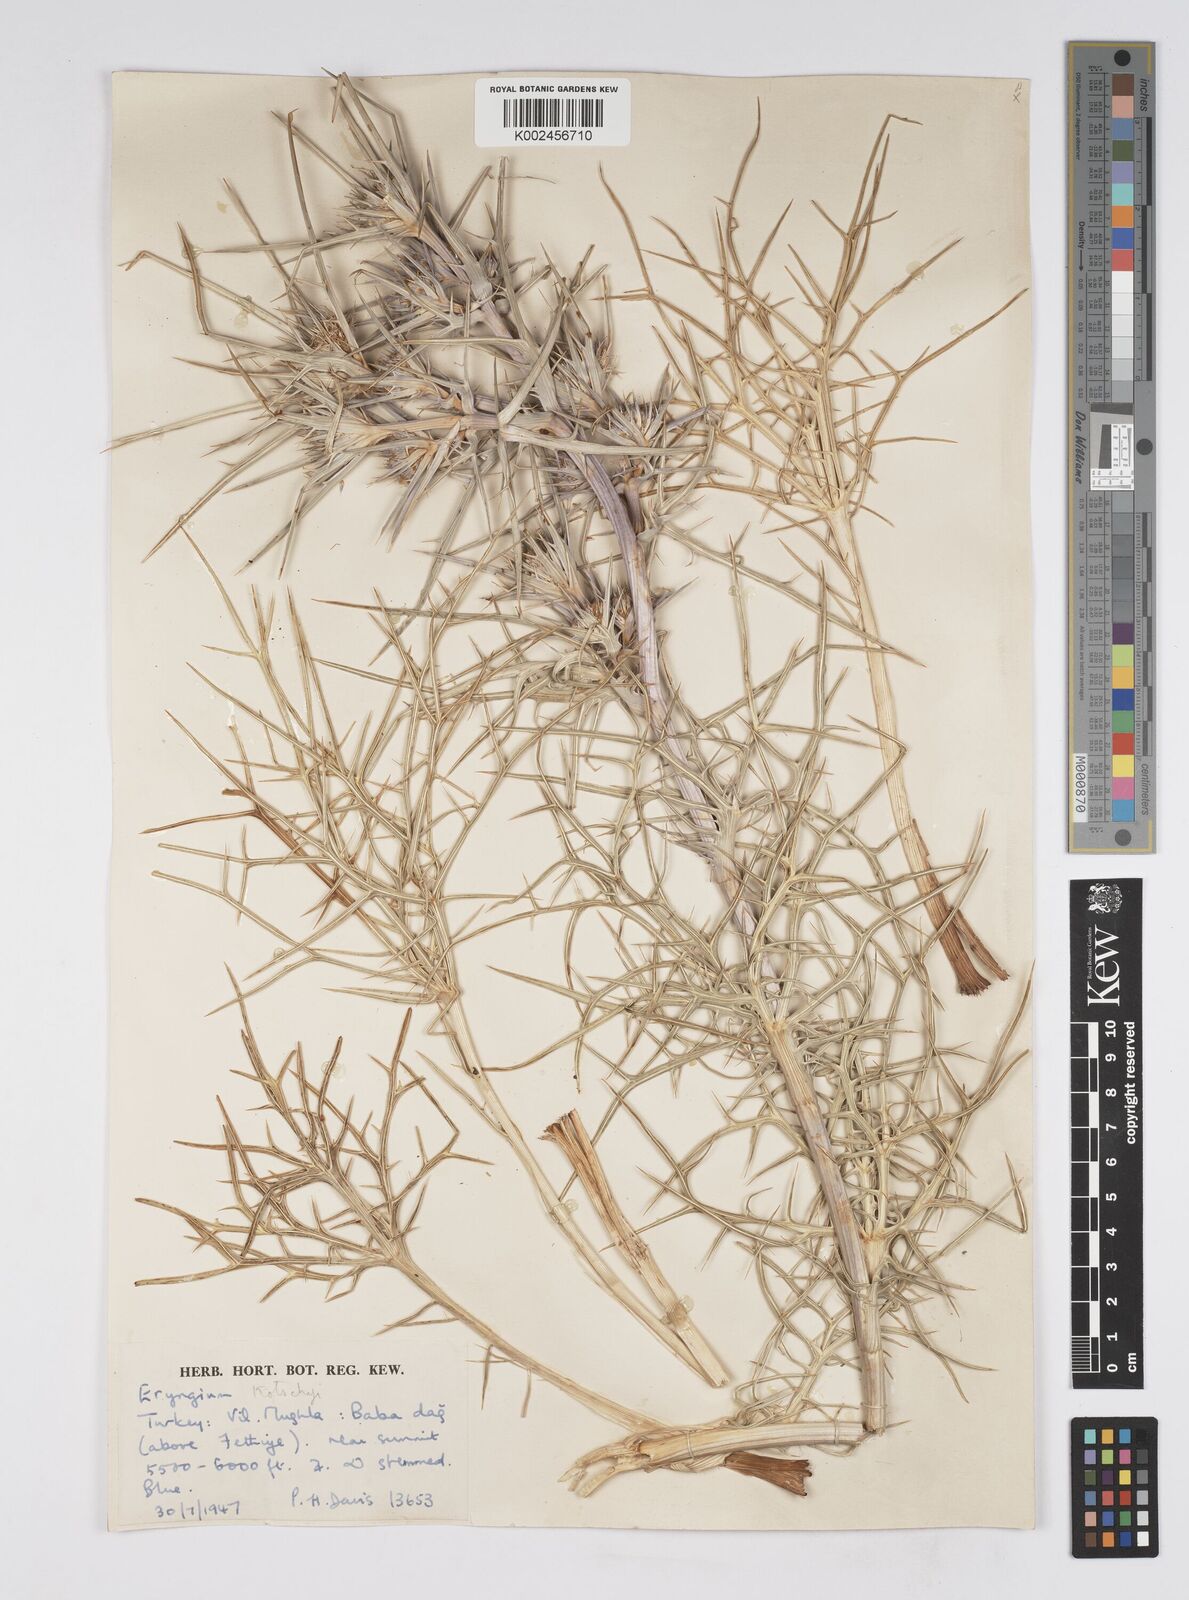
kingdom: Plantae
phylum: Tracheophyta
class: Magnoliopsida
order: Apiales
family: Apiaceae
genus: Eryngium
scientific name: Eryngium
